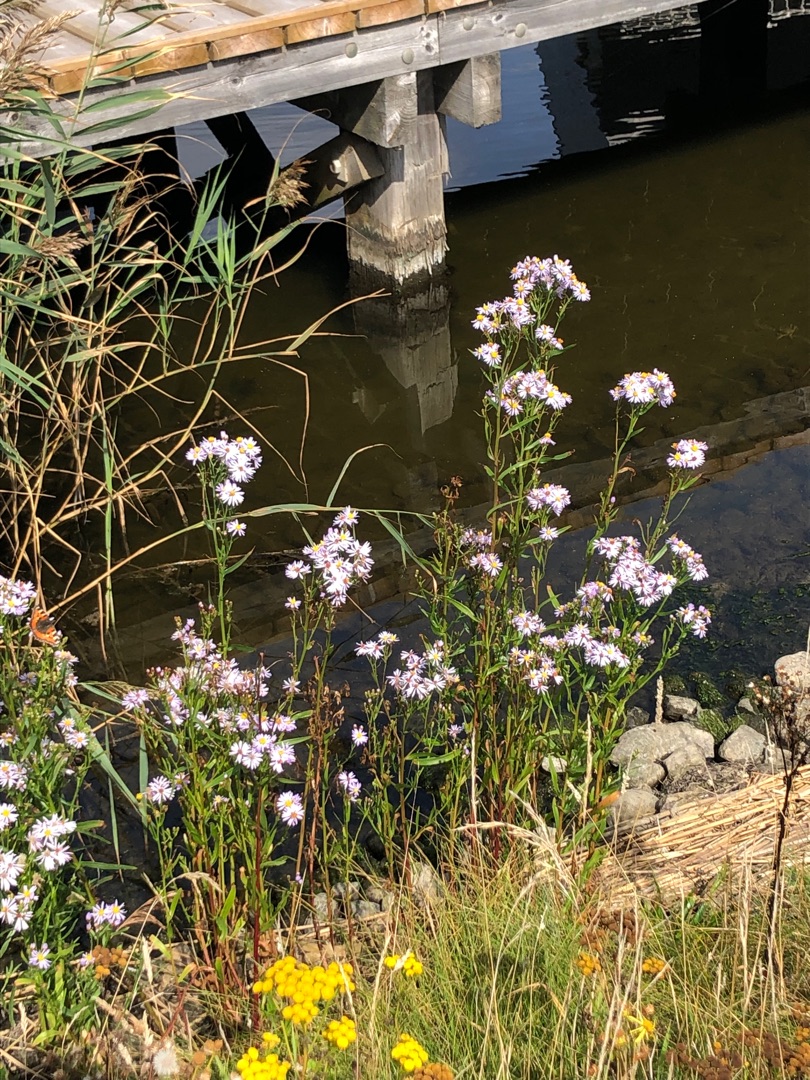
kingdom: Plantae
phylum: Tracheophyta
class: Magnoliopsida
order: Asterales
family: Asteraceae
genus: Tripolium
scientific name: Tripolium pannonicum
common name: Strandasters
